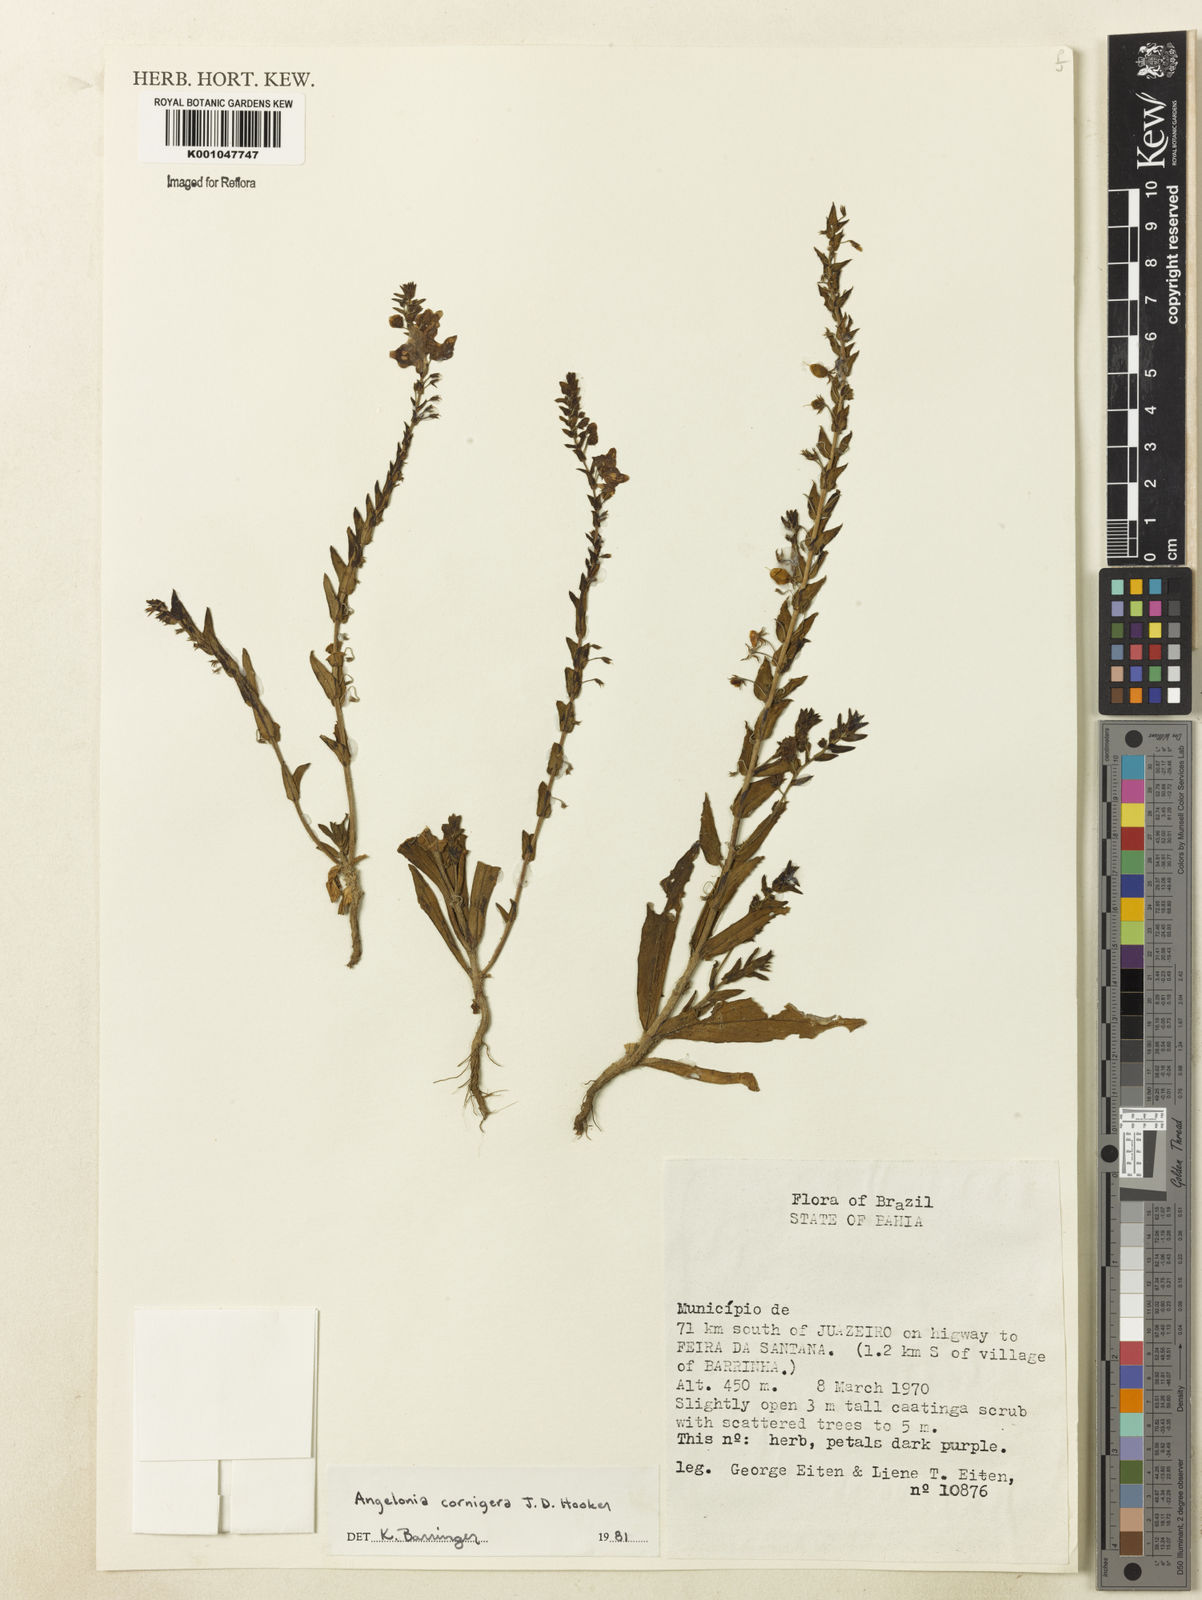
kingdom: Plantae
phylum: Tracheophyta
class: Magnoliopsida
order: Lamiales
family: Plantaginaceae
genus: Angelonia
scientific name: Angelonia cornigera
